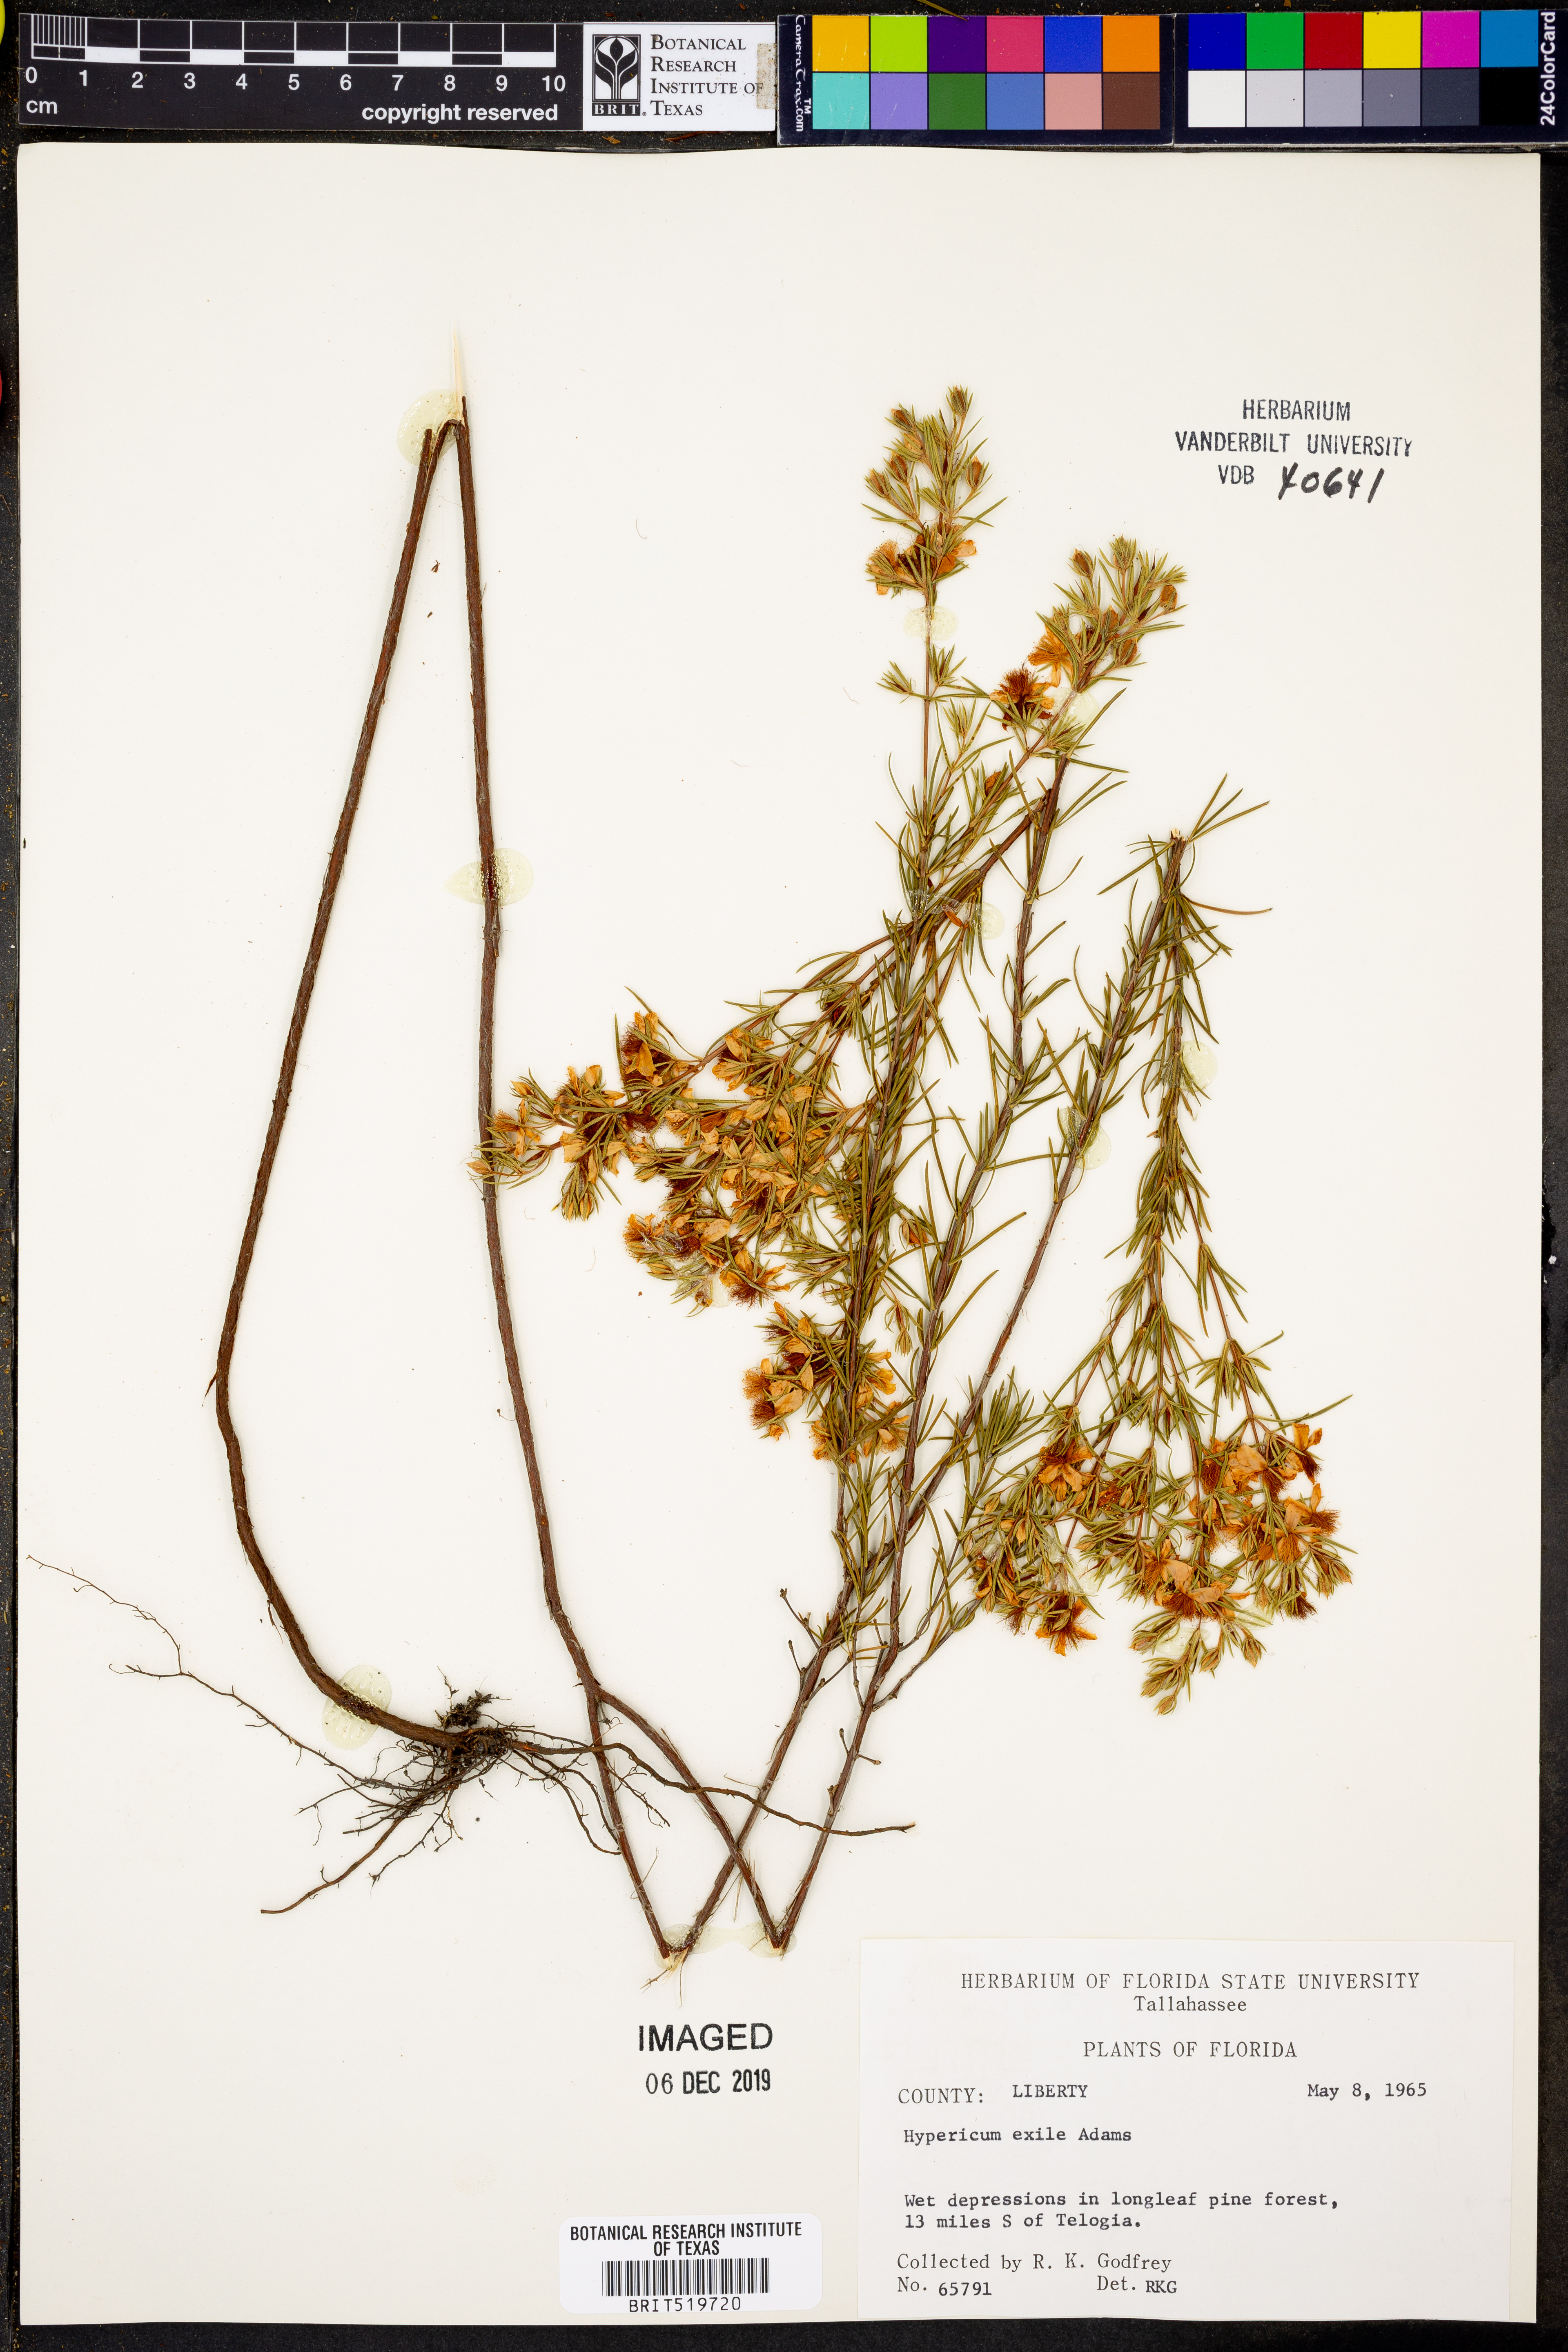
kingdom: Plantae
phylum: Tracheophyta
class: Magnoliopsida
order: Malpighiales
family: Hypericaceae
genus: Hypericum
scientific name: Hypericum nitidum
